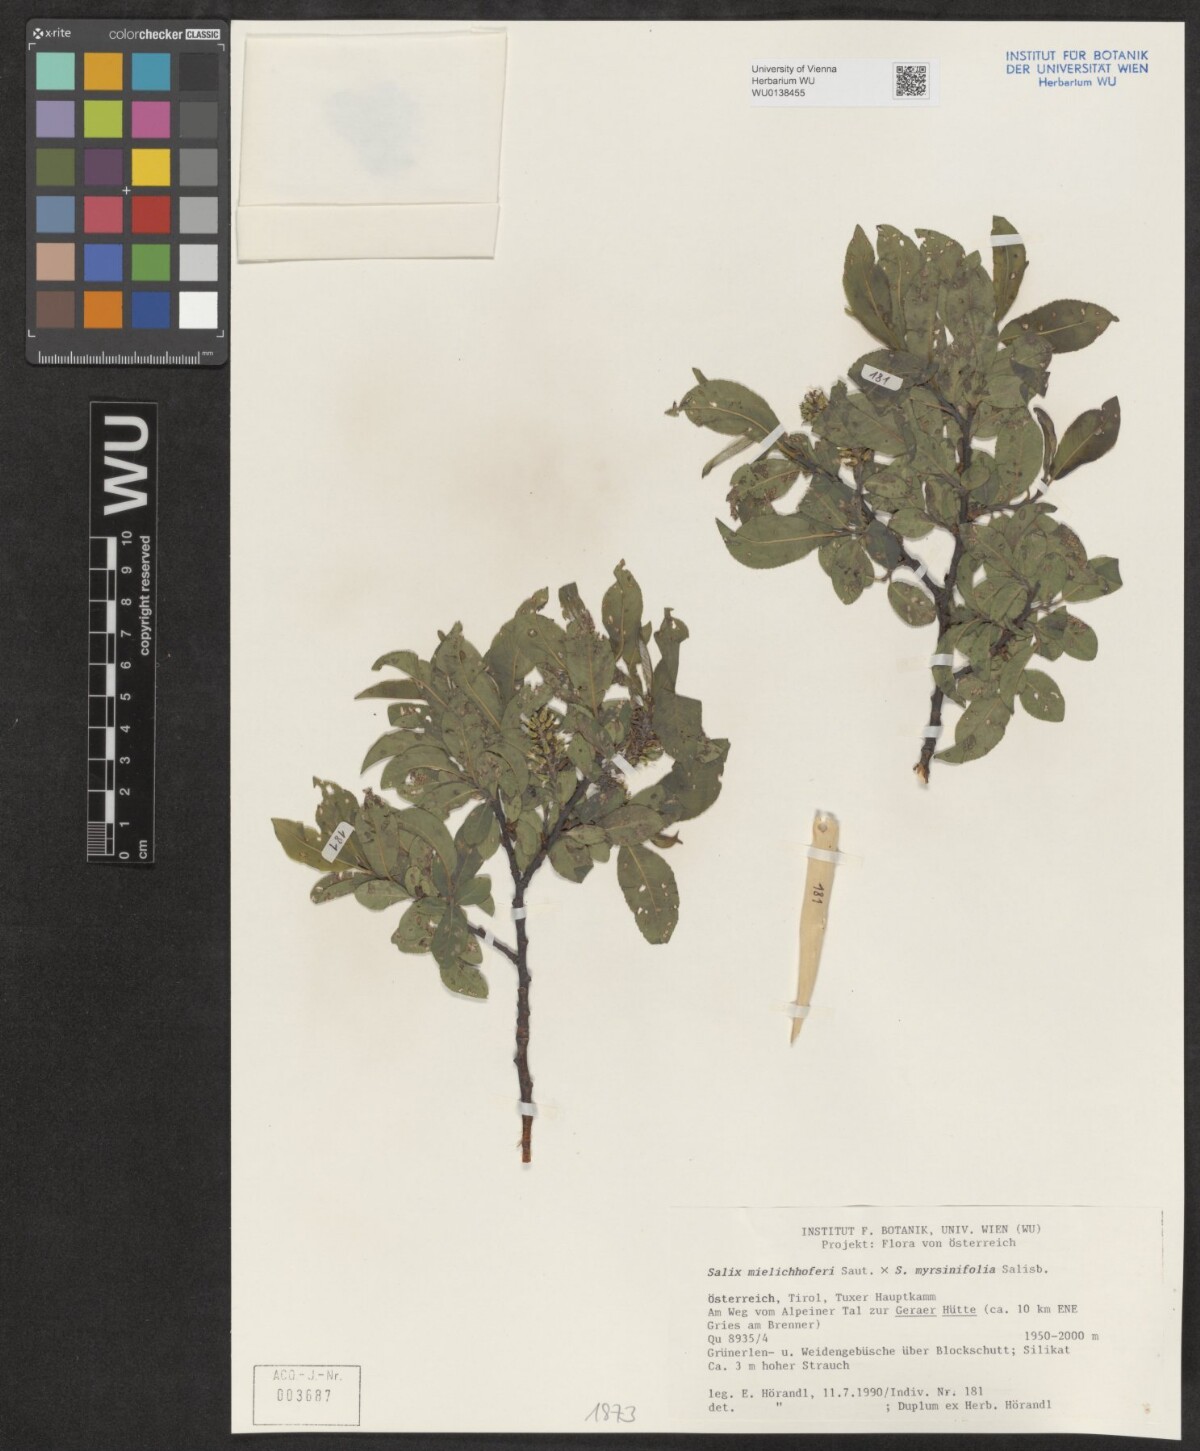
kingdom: Plantae
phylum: Tracheophyta
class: Magnoliopsida
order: Malpighiales
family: Salicaceae
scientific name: Salicaceae
